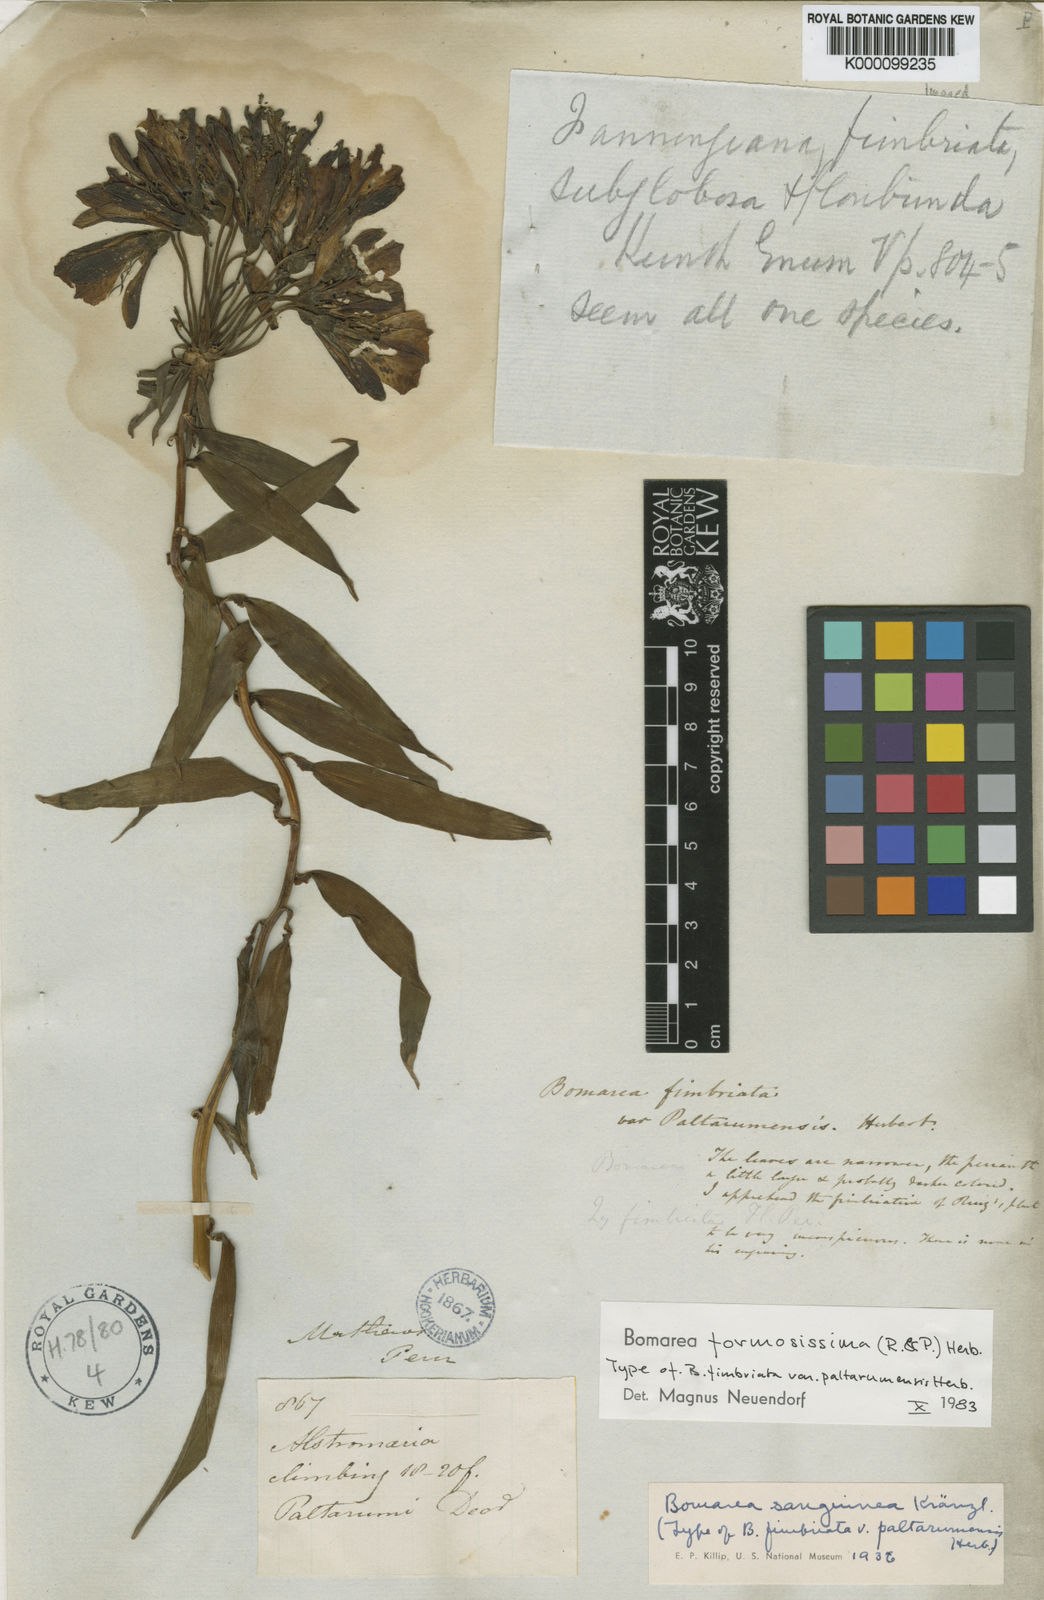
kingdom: Plantae
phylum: Tracheophyta
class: Liliopsida
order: Liliales
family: Alstroemeriaceae
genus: Bomarea
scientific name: Bomarea formosissima
